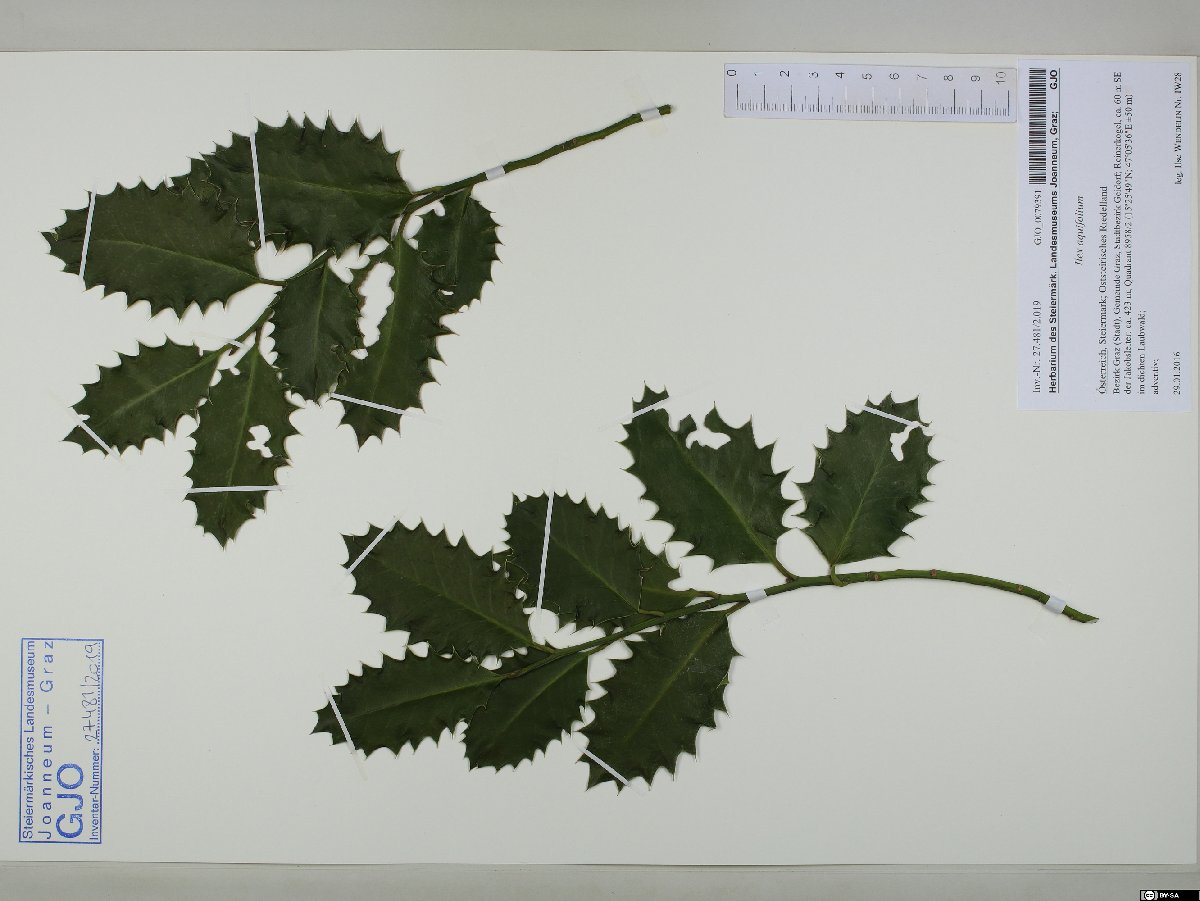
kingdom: Plantae
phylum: Tracheophyta
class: Magnoliopsida
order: Aquifoliales
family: Aquifoliaceae
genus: Ilex
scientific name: Ilex aquifolium
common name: English holly
